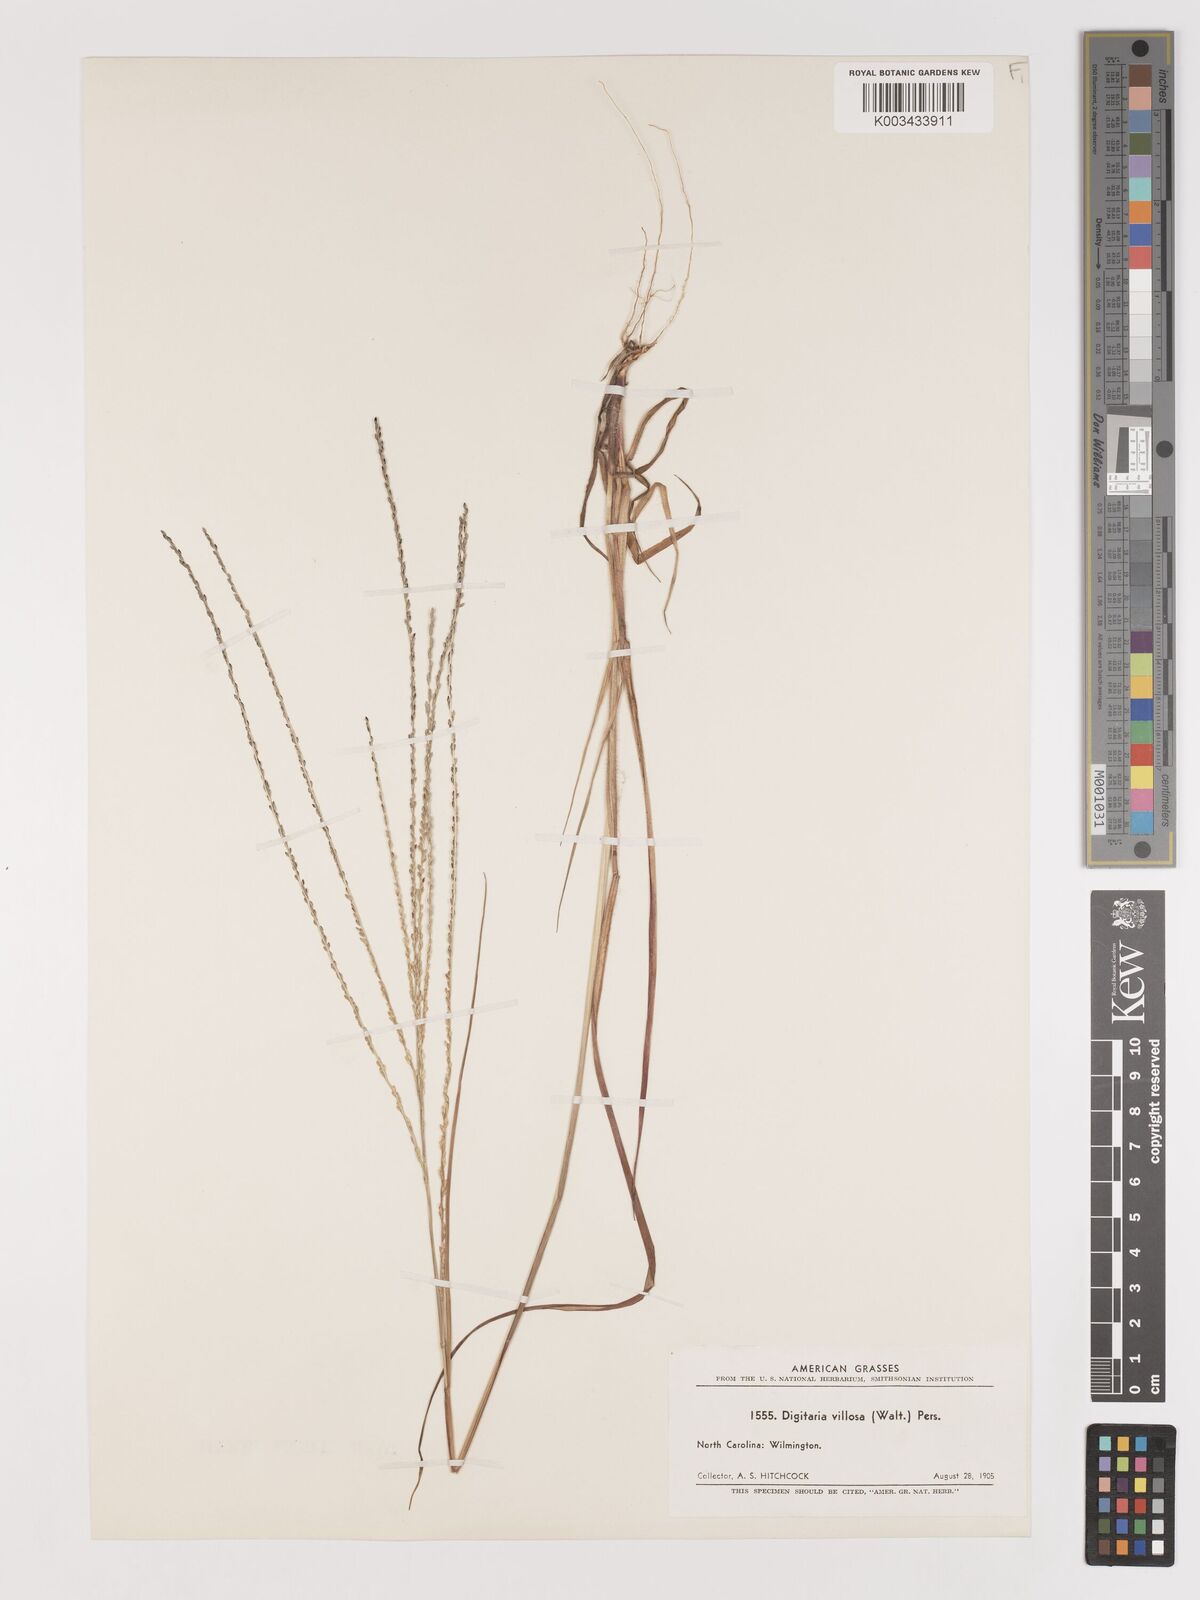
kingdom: Plantae
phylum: Tracheophyta
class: Liliopsida
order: Poales
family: Poaceae
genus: Digitaria
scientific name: Digitaria villosa
